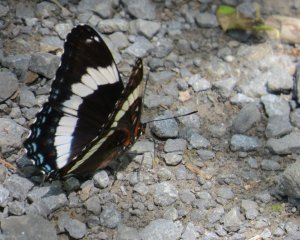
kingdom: Animalia
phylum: Arthropoda
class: Insecta
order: Lepidoptera
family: Nymphalidae
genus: Limenitis
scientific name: Limenitis arthemis
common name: Red-spotted Admiral
